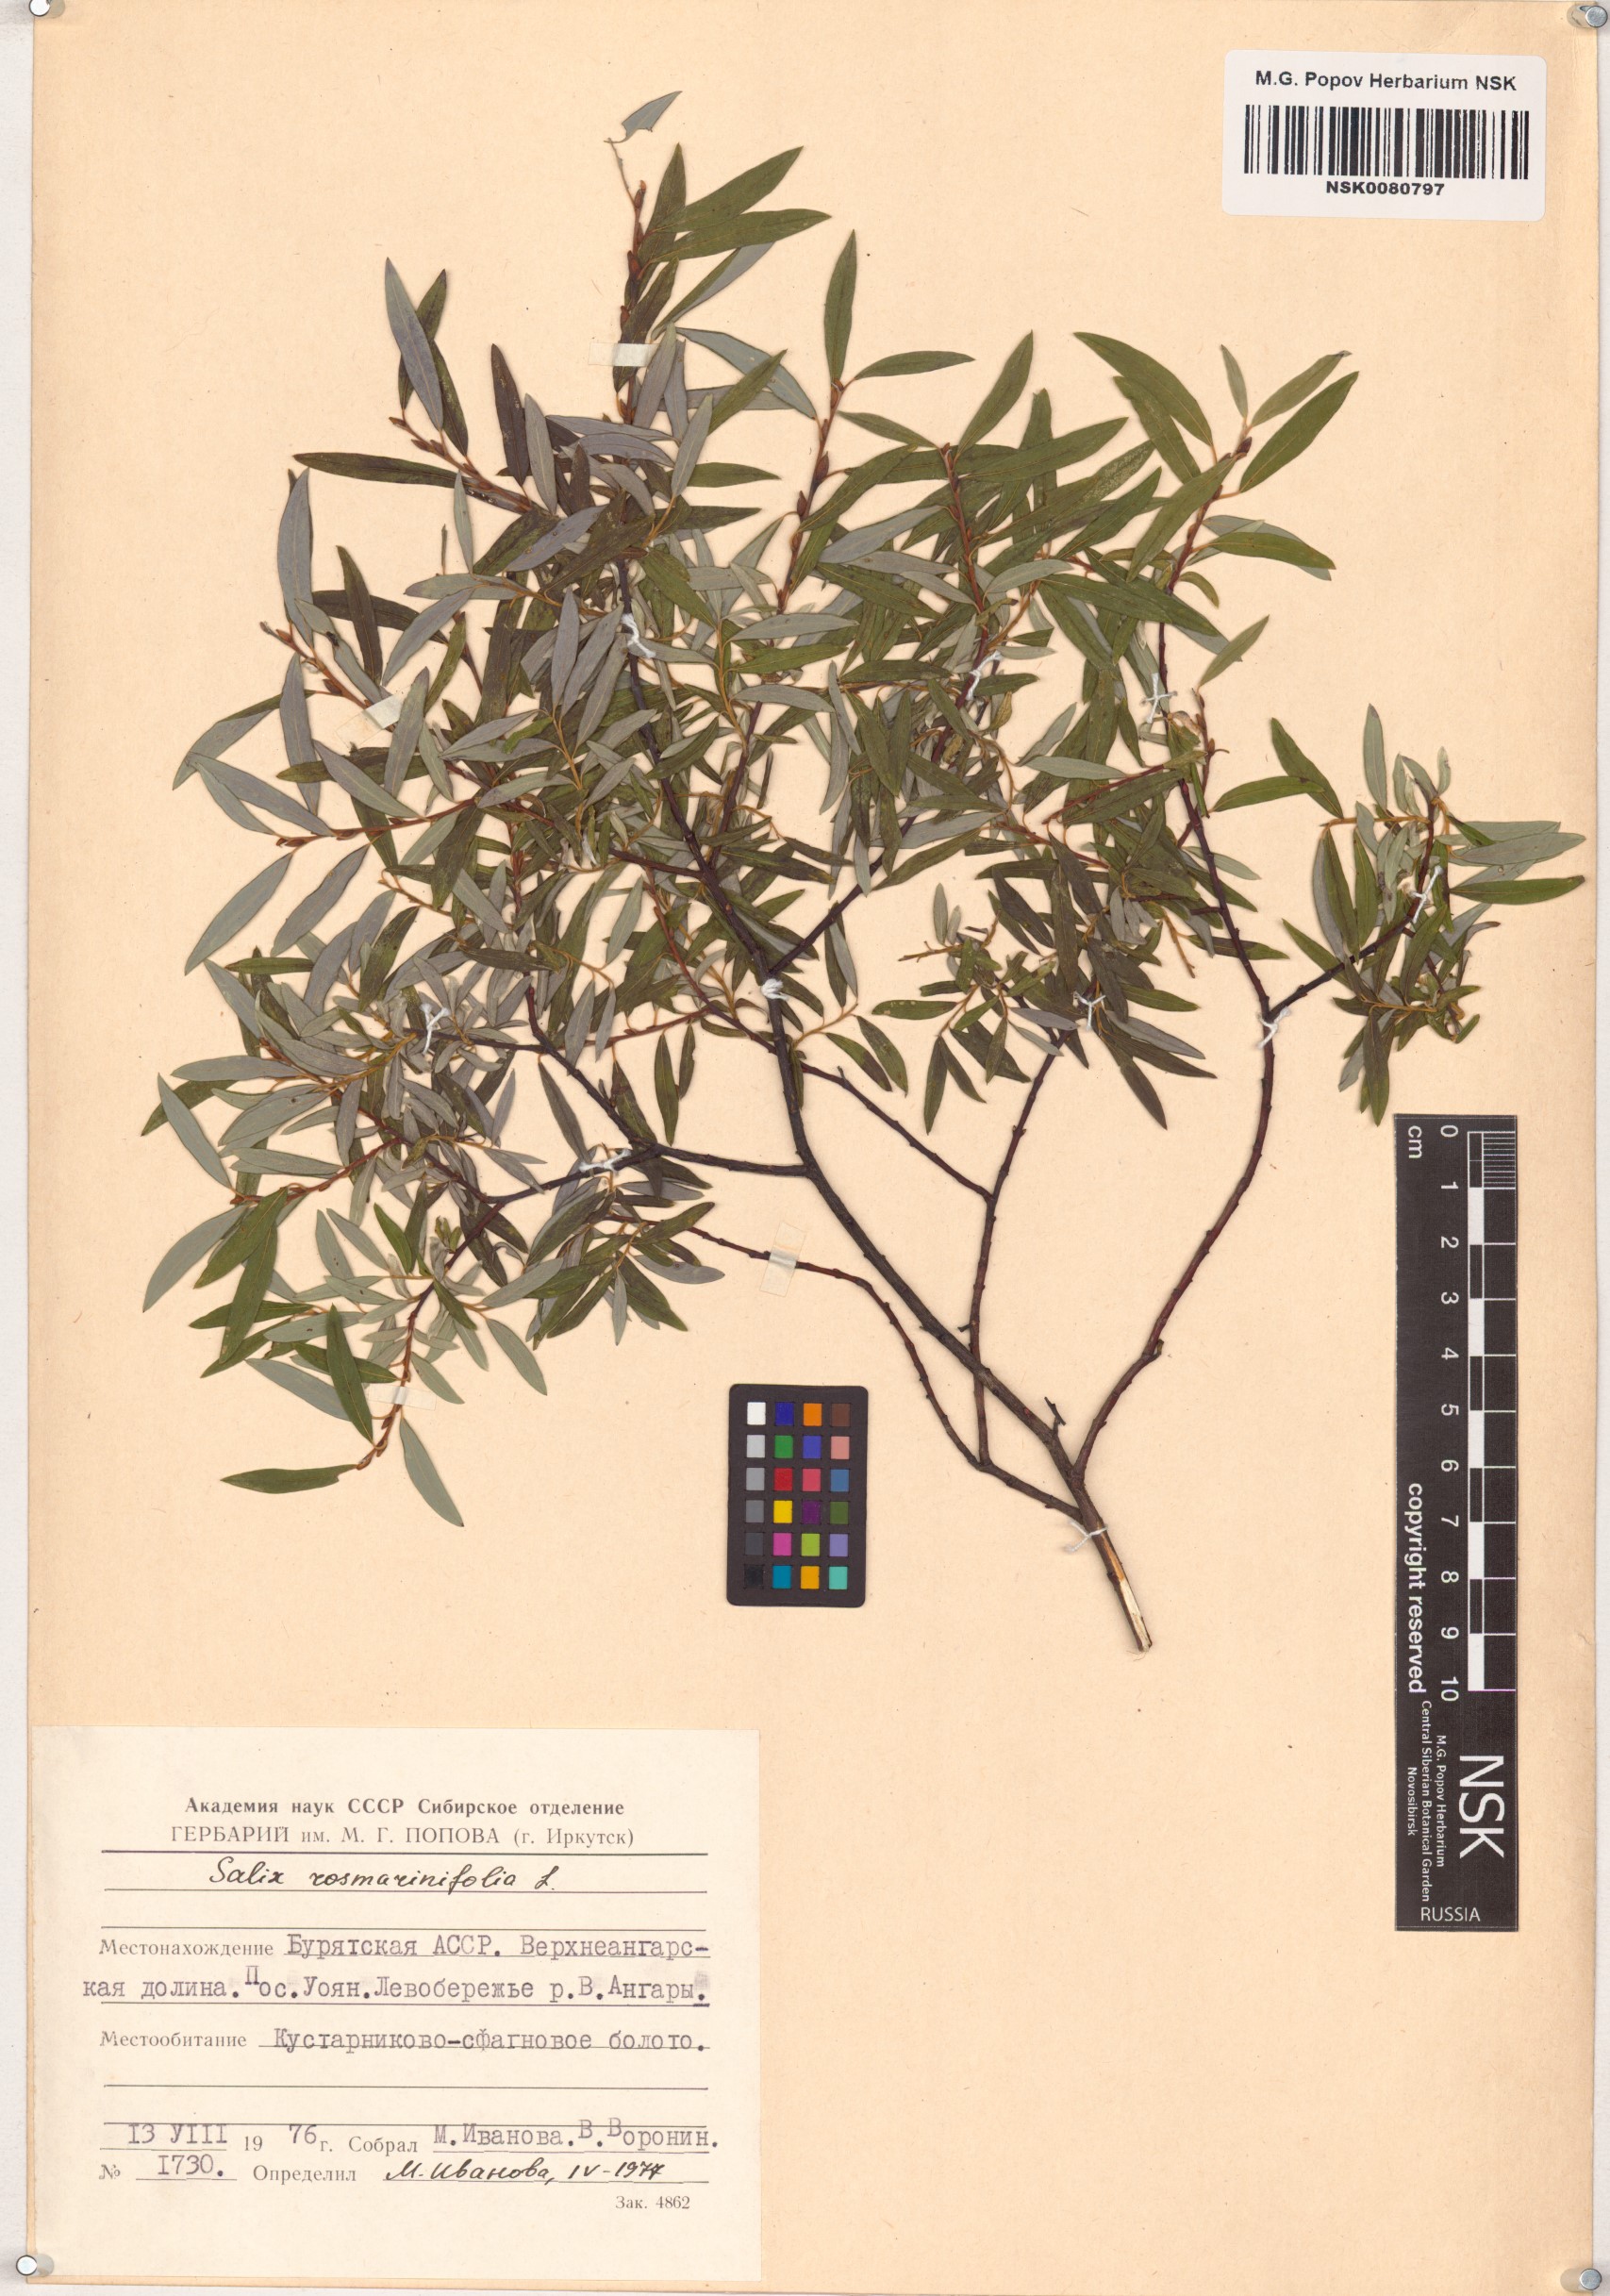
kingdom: Plantae
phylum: Tracheophyta
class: Magnoliopsida
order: Malpighiales
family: Salicaceae
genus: Salix
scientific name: Salix rosmarinifolia
